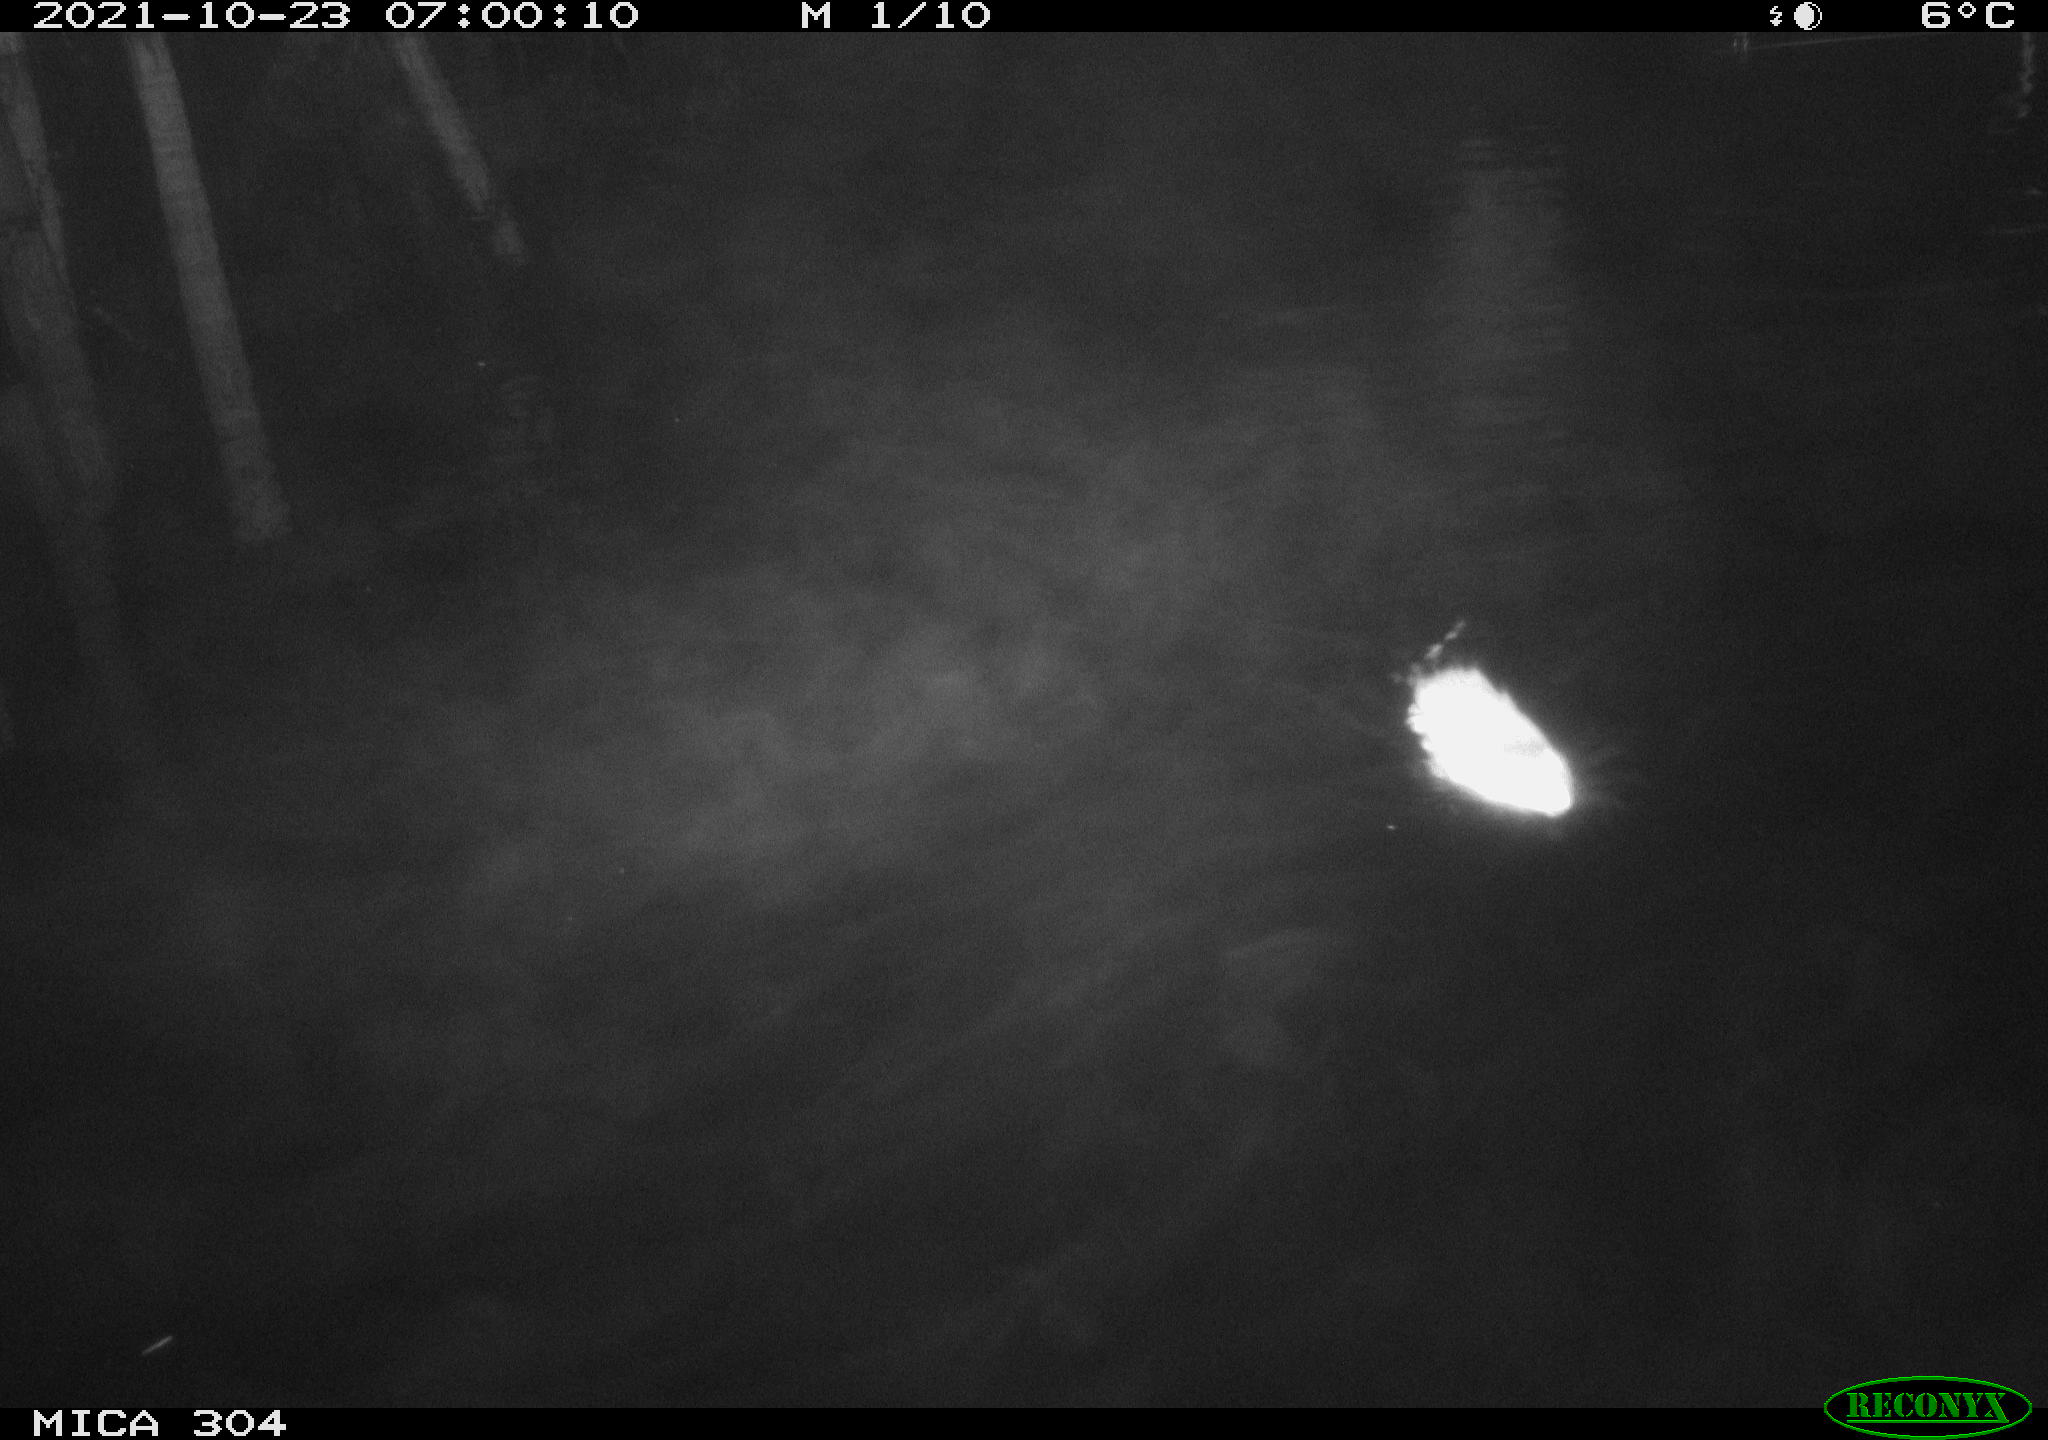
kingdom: Animalia
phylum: Chordata
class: Mammalia
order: Rodentia
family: Cricetidae
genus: Ondatra
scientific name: Ondatra zibethicus
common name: Muskrat
